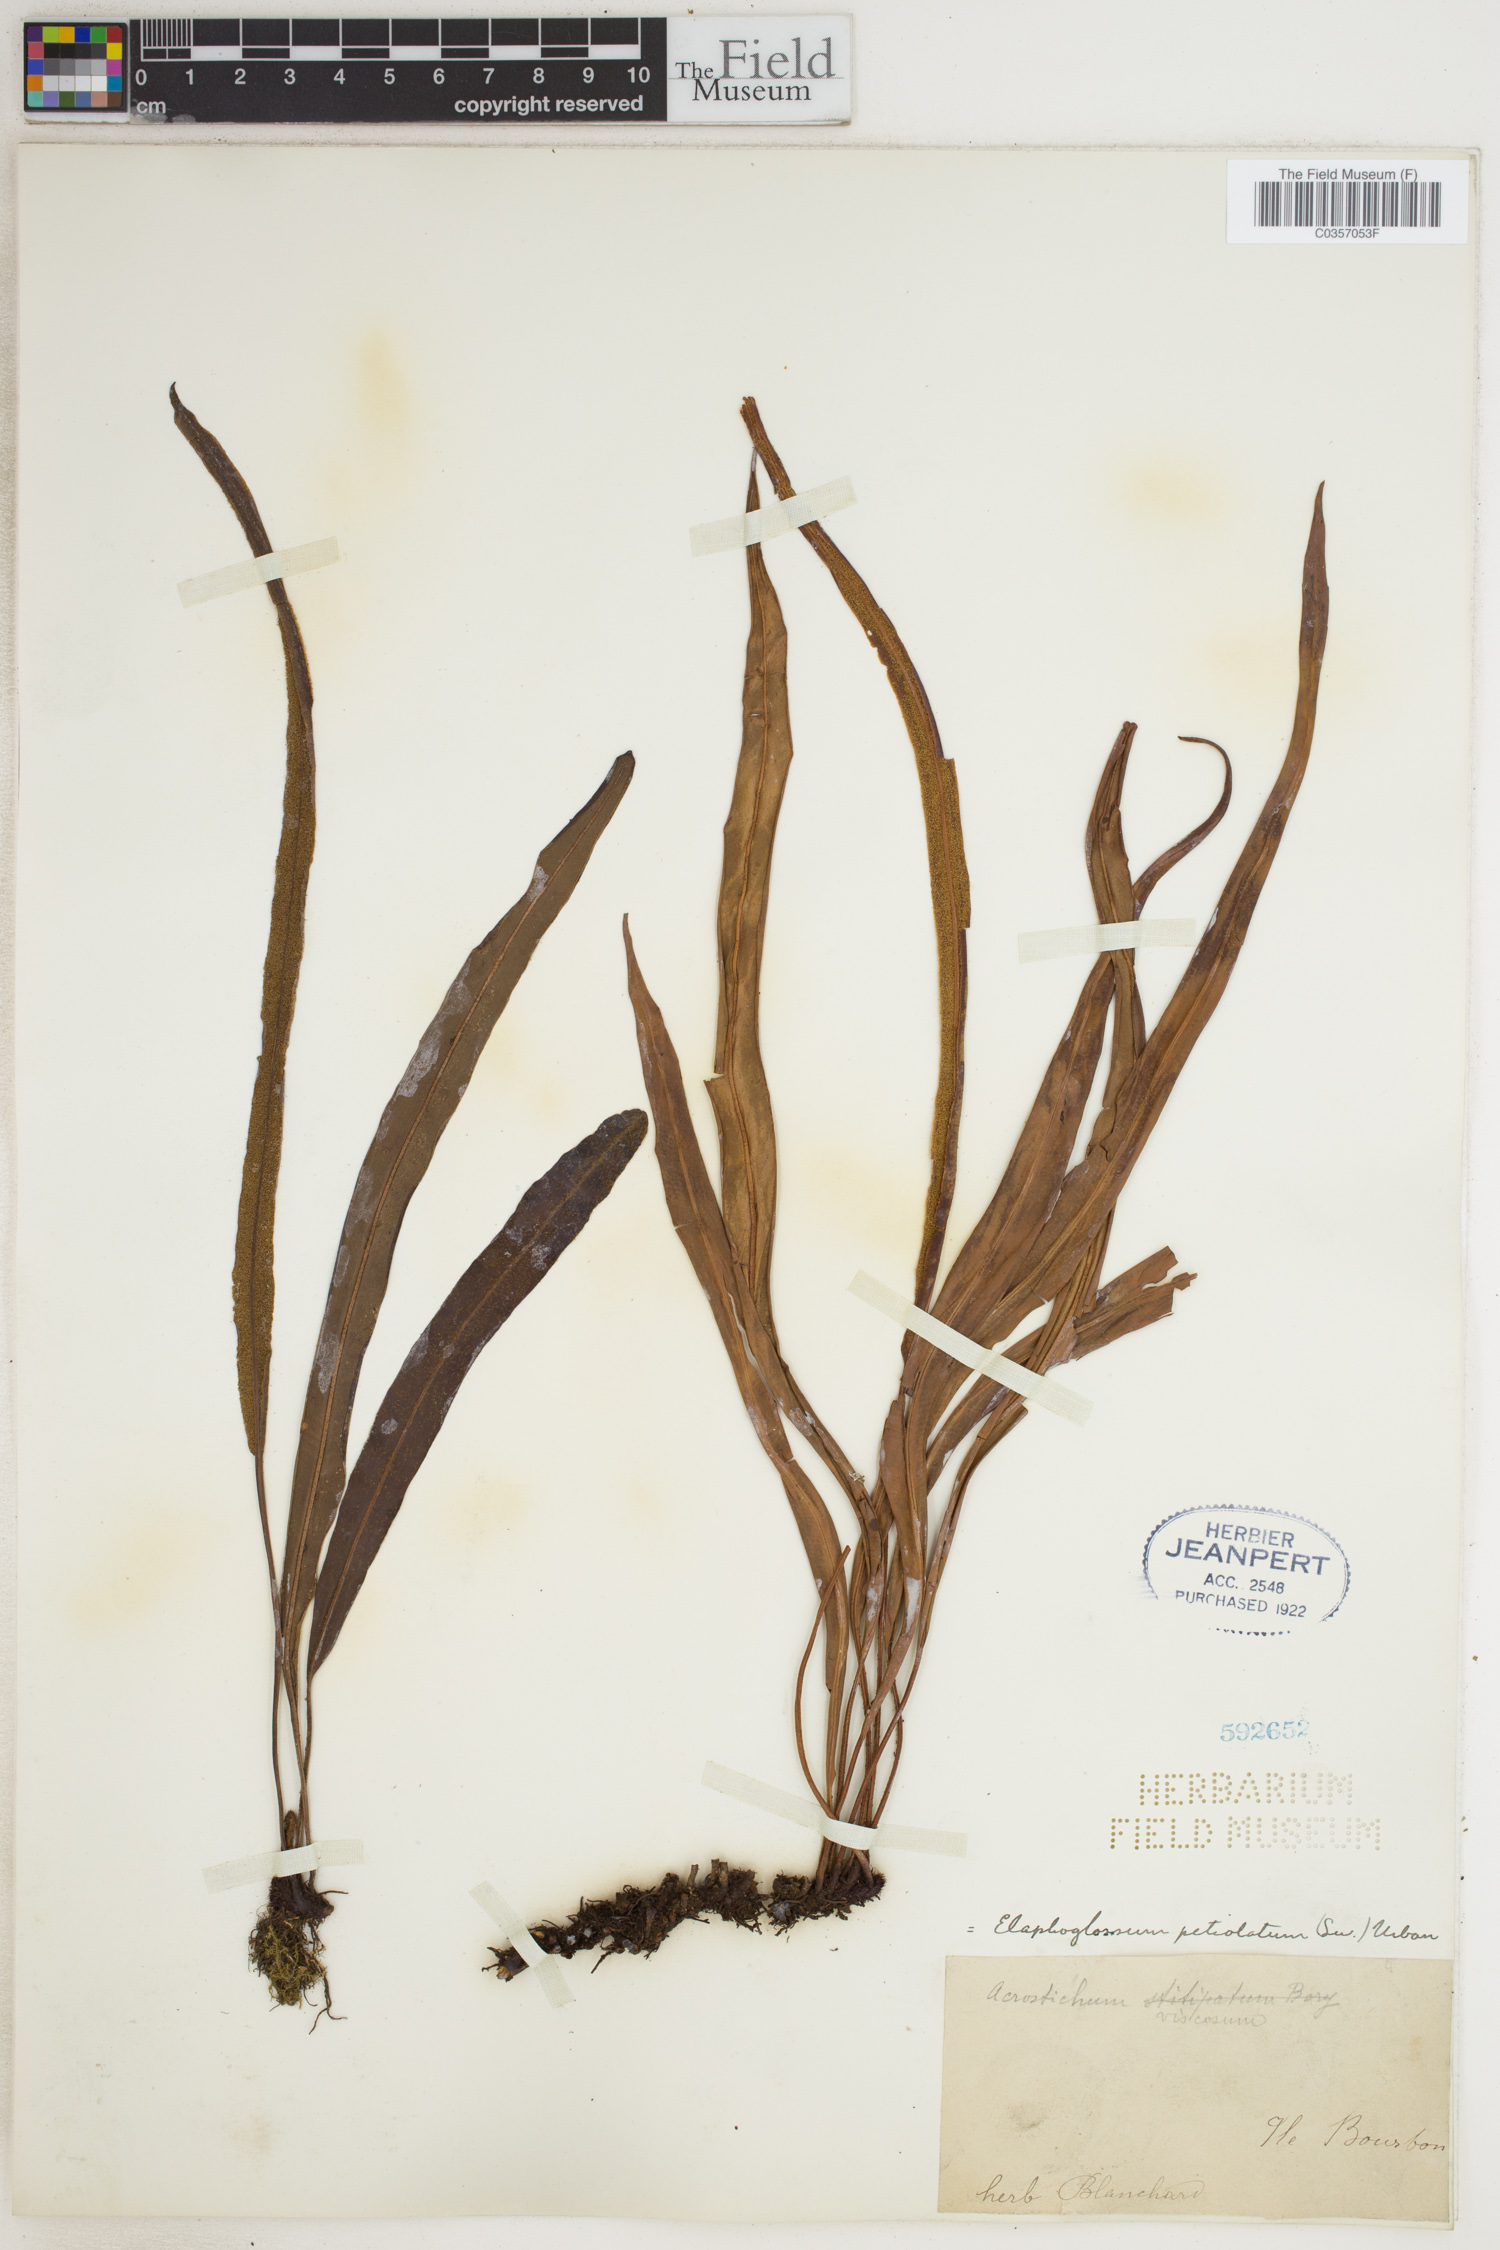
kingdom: Plantae
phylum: Tracheophyta
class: Polypodiopsida
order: Polypodiales
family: Dryopteridaceae
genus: Elaphoglossum
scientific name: Elaphoglossum petiolatum
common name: Graceful tonguefern
